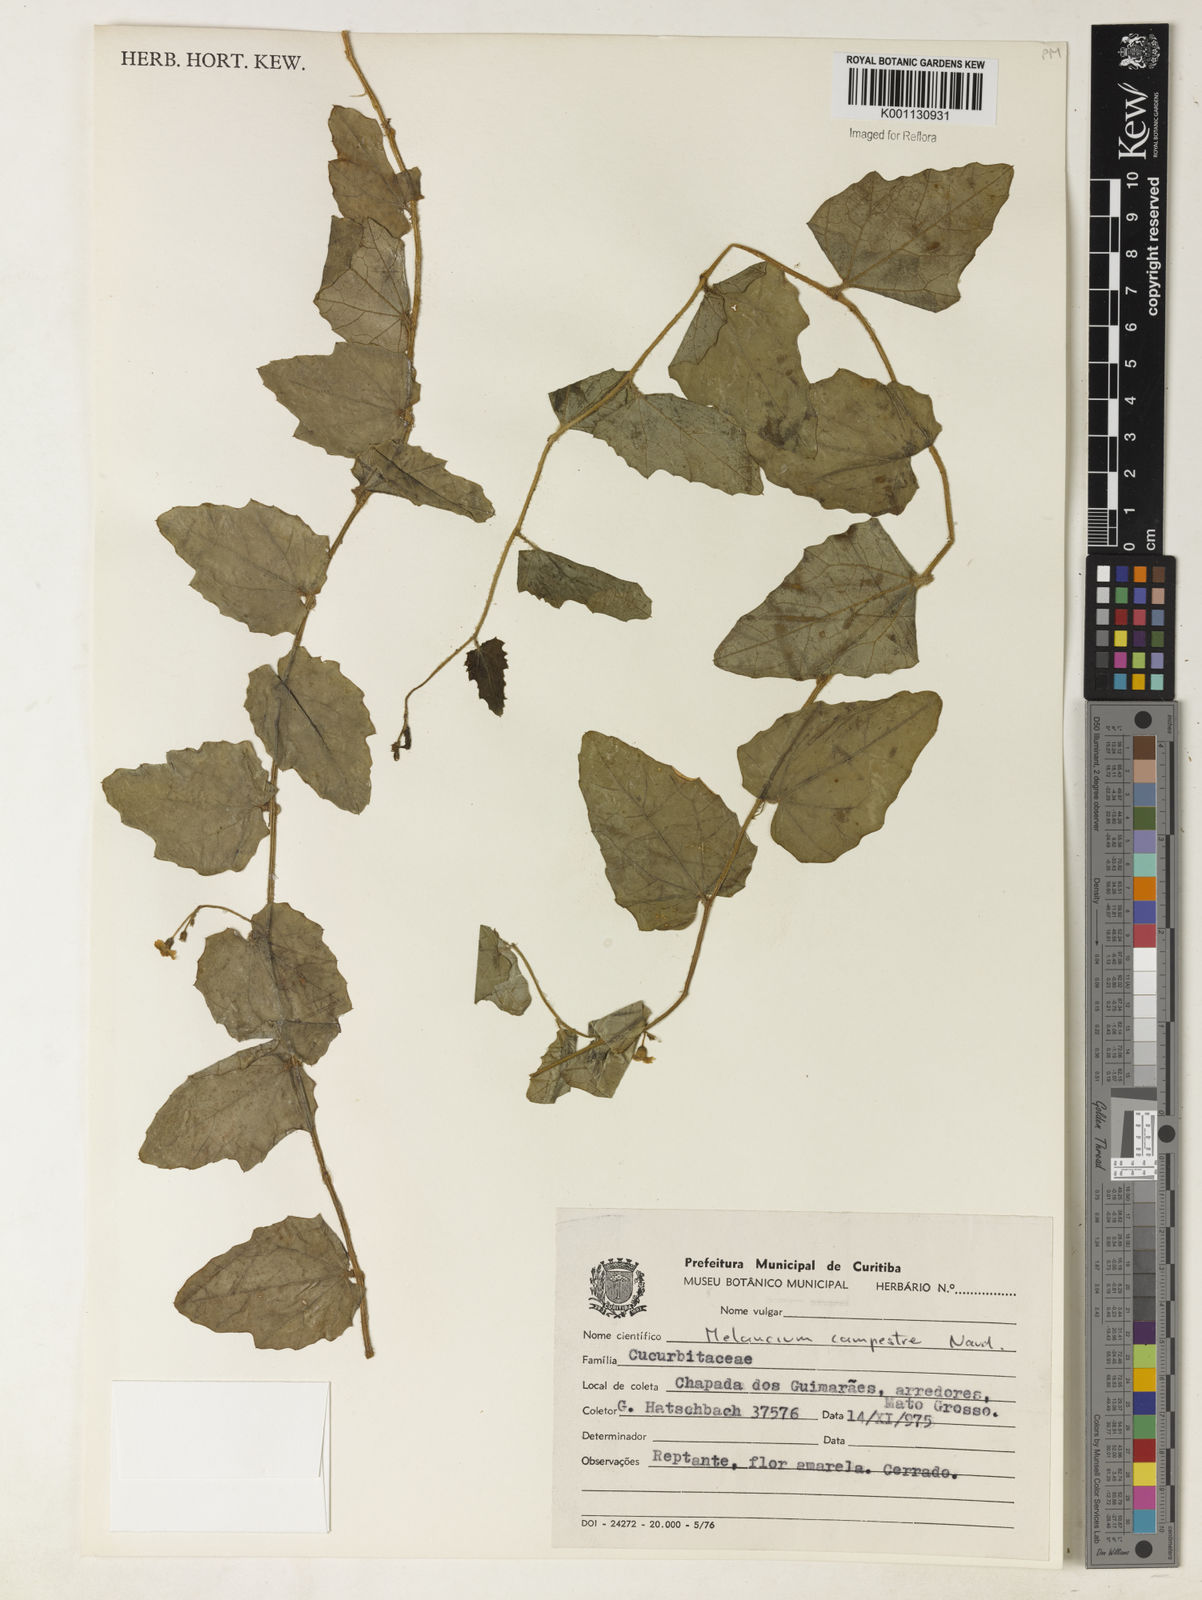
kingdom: Plantae
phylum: Tracheophyta
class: Magnoliopsida
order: Cucurbitales
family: Cucurbitaceae
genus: Melothria
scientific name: Melothria campestris
